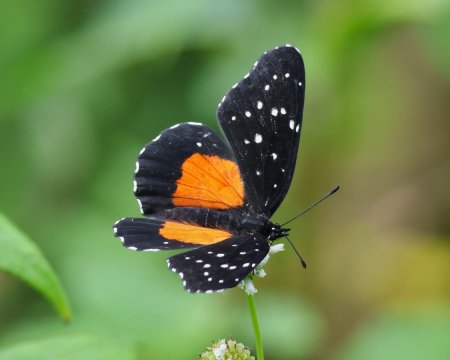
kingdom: Animalia
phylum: Arthropoda
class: Insecta
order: Lepidoptera
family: Nymphalidae
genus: Chlosyne
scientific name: Chlosyne janais
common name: Crimson Patch
